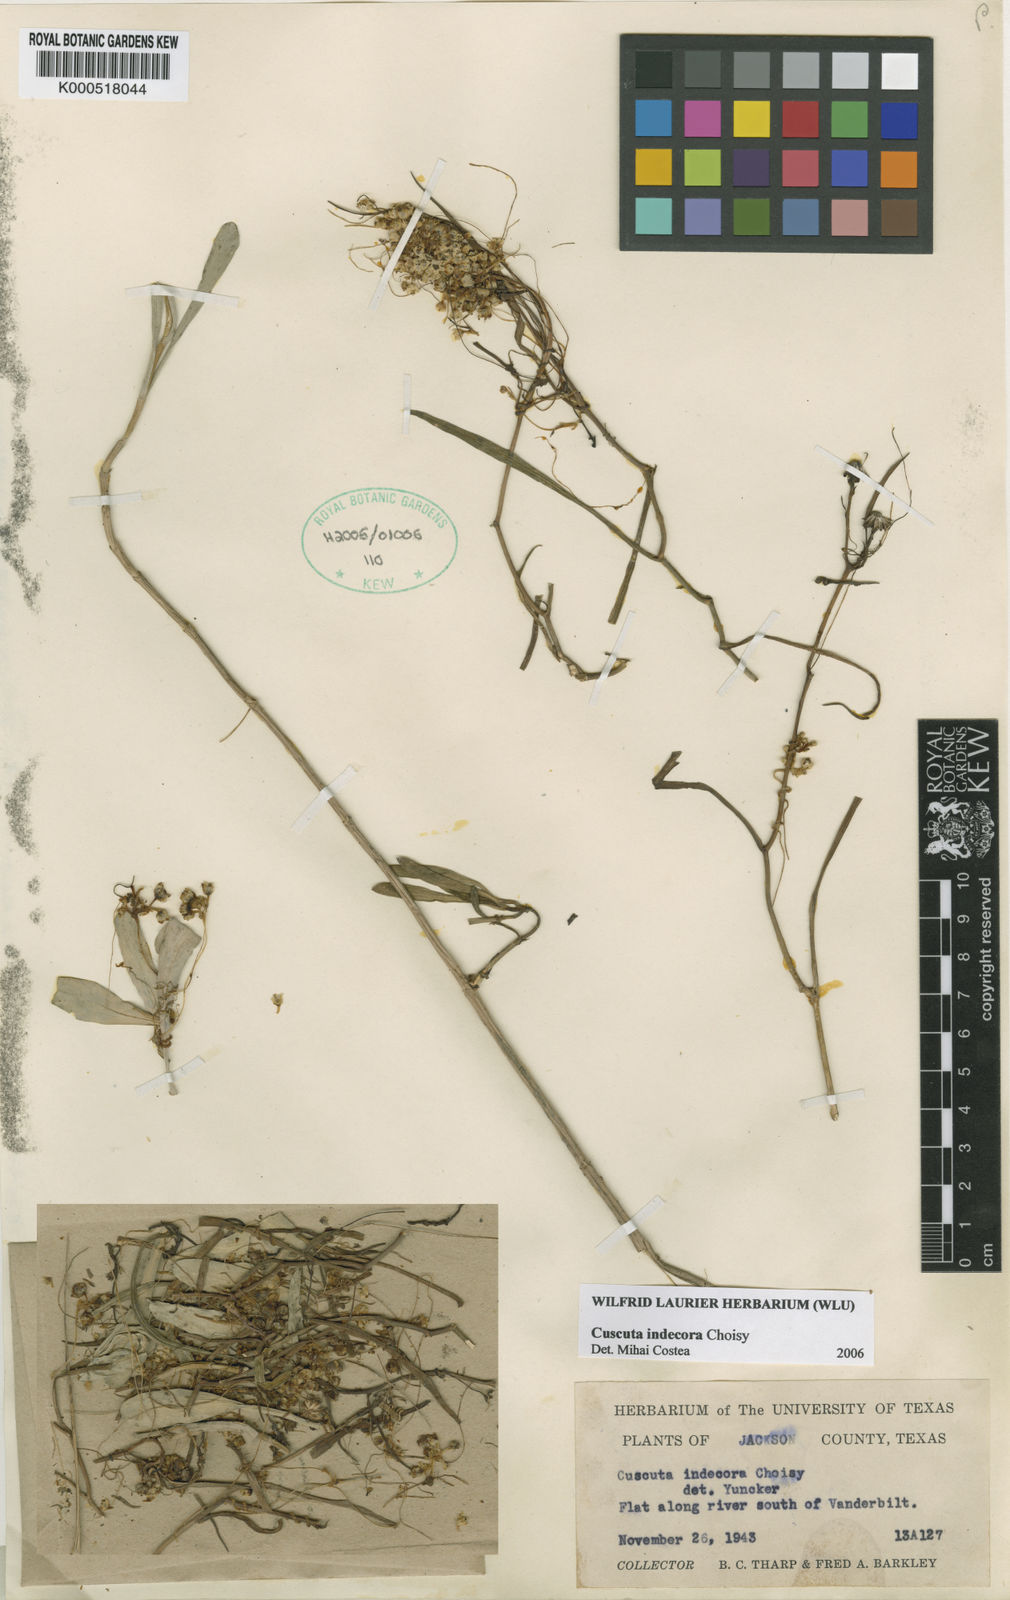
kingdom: Plantae
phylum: Tracheophyta
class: Magnoliopsida
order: Solanales
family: Convolvulaceae
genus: Cuscuta
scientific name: Cuscuta indecora
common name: Large-seed dodder
